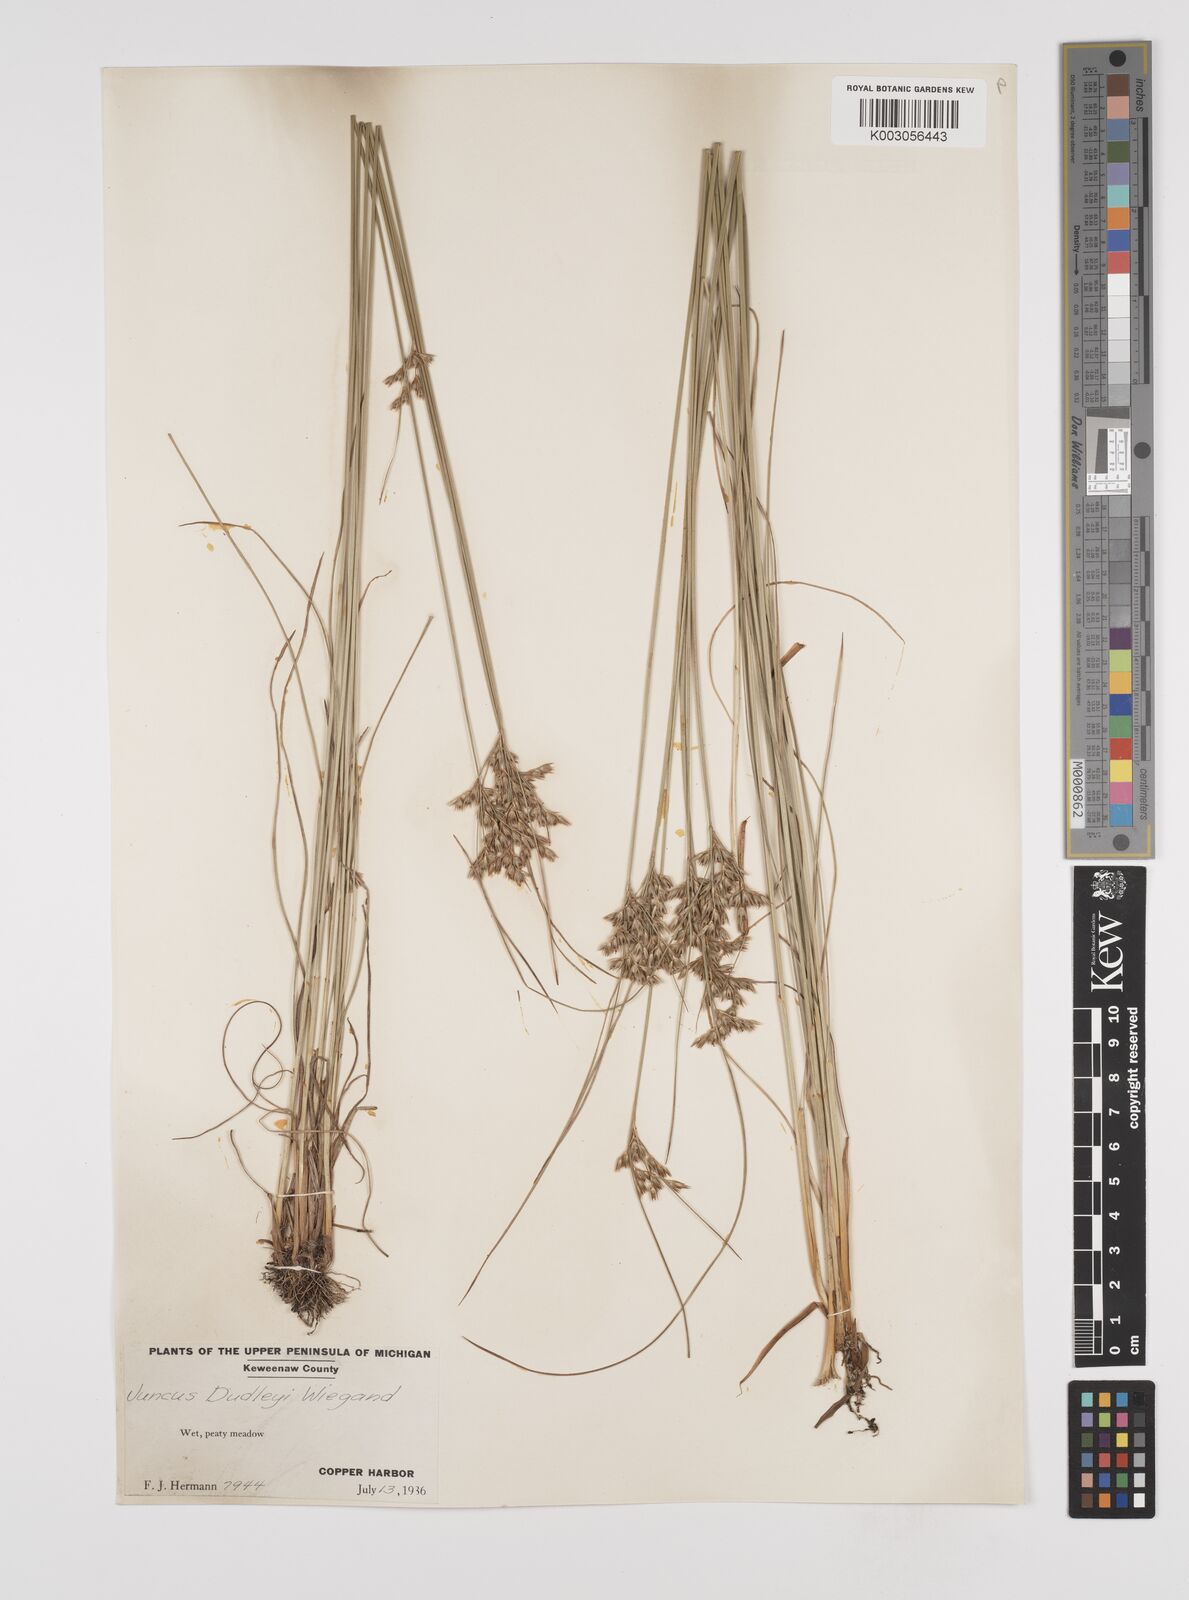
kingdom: Plantae
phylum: Tracheophyta
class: Liliopsida
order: Poales
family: Juncaceae
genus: Juncus
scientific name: Juncus dudleyi
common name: Dudley's rush
